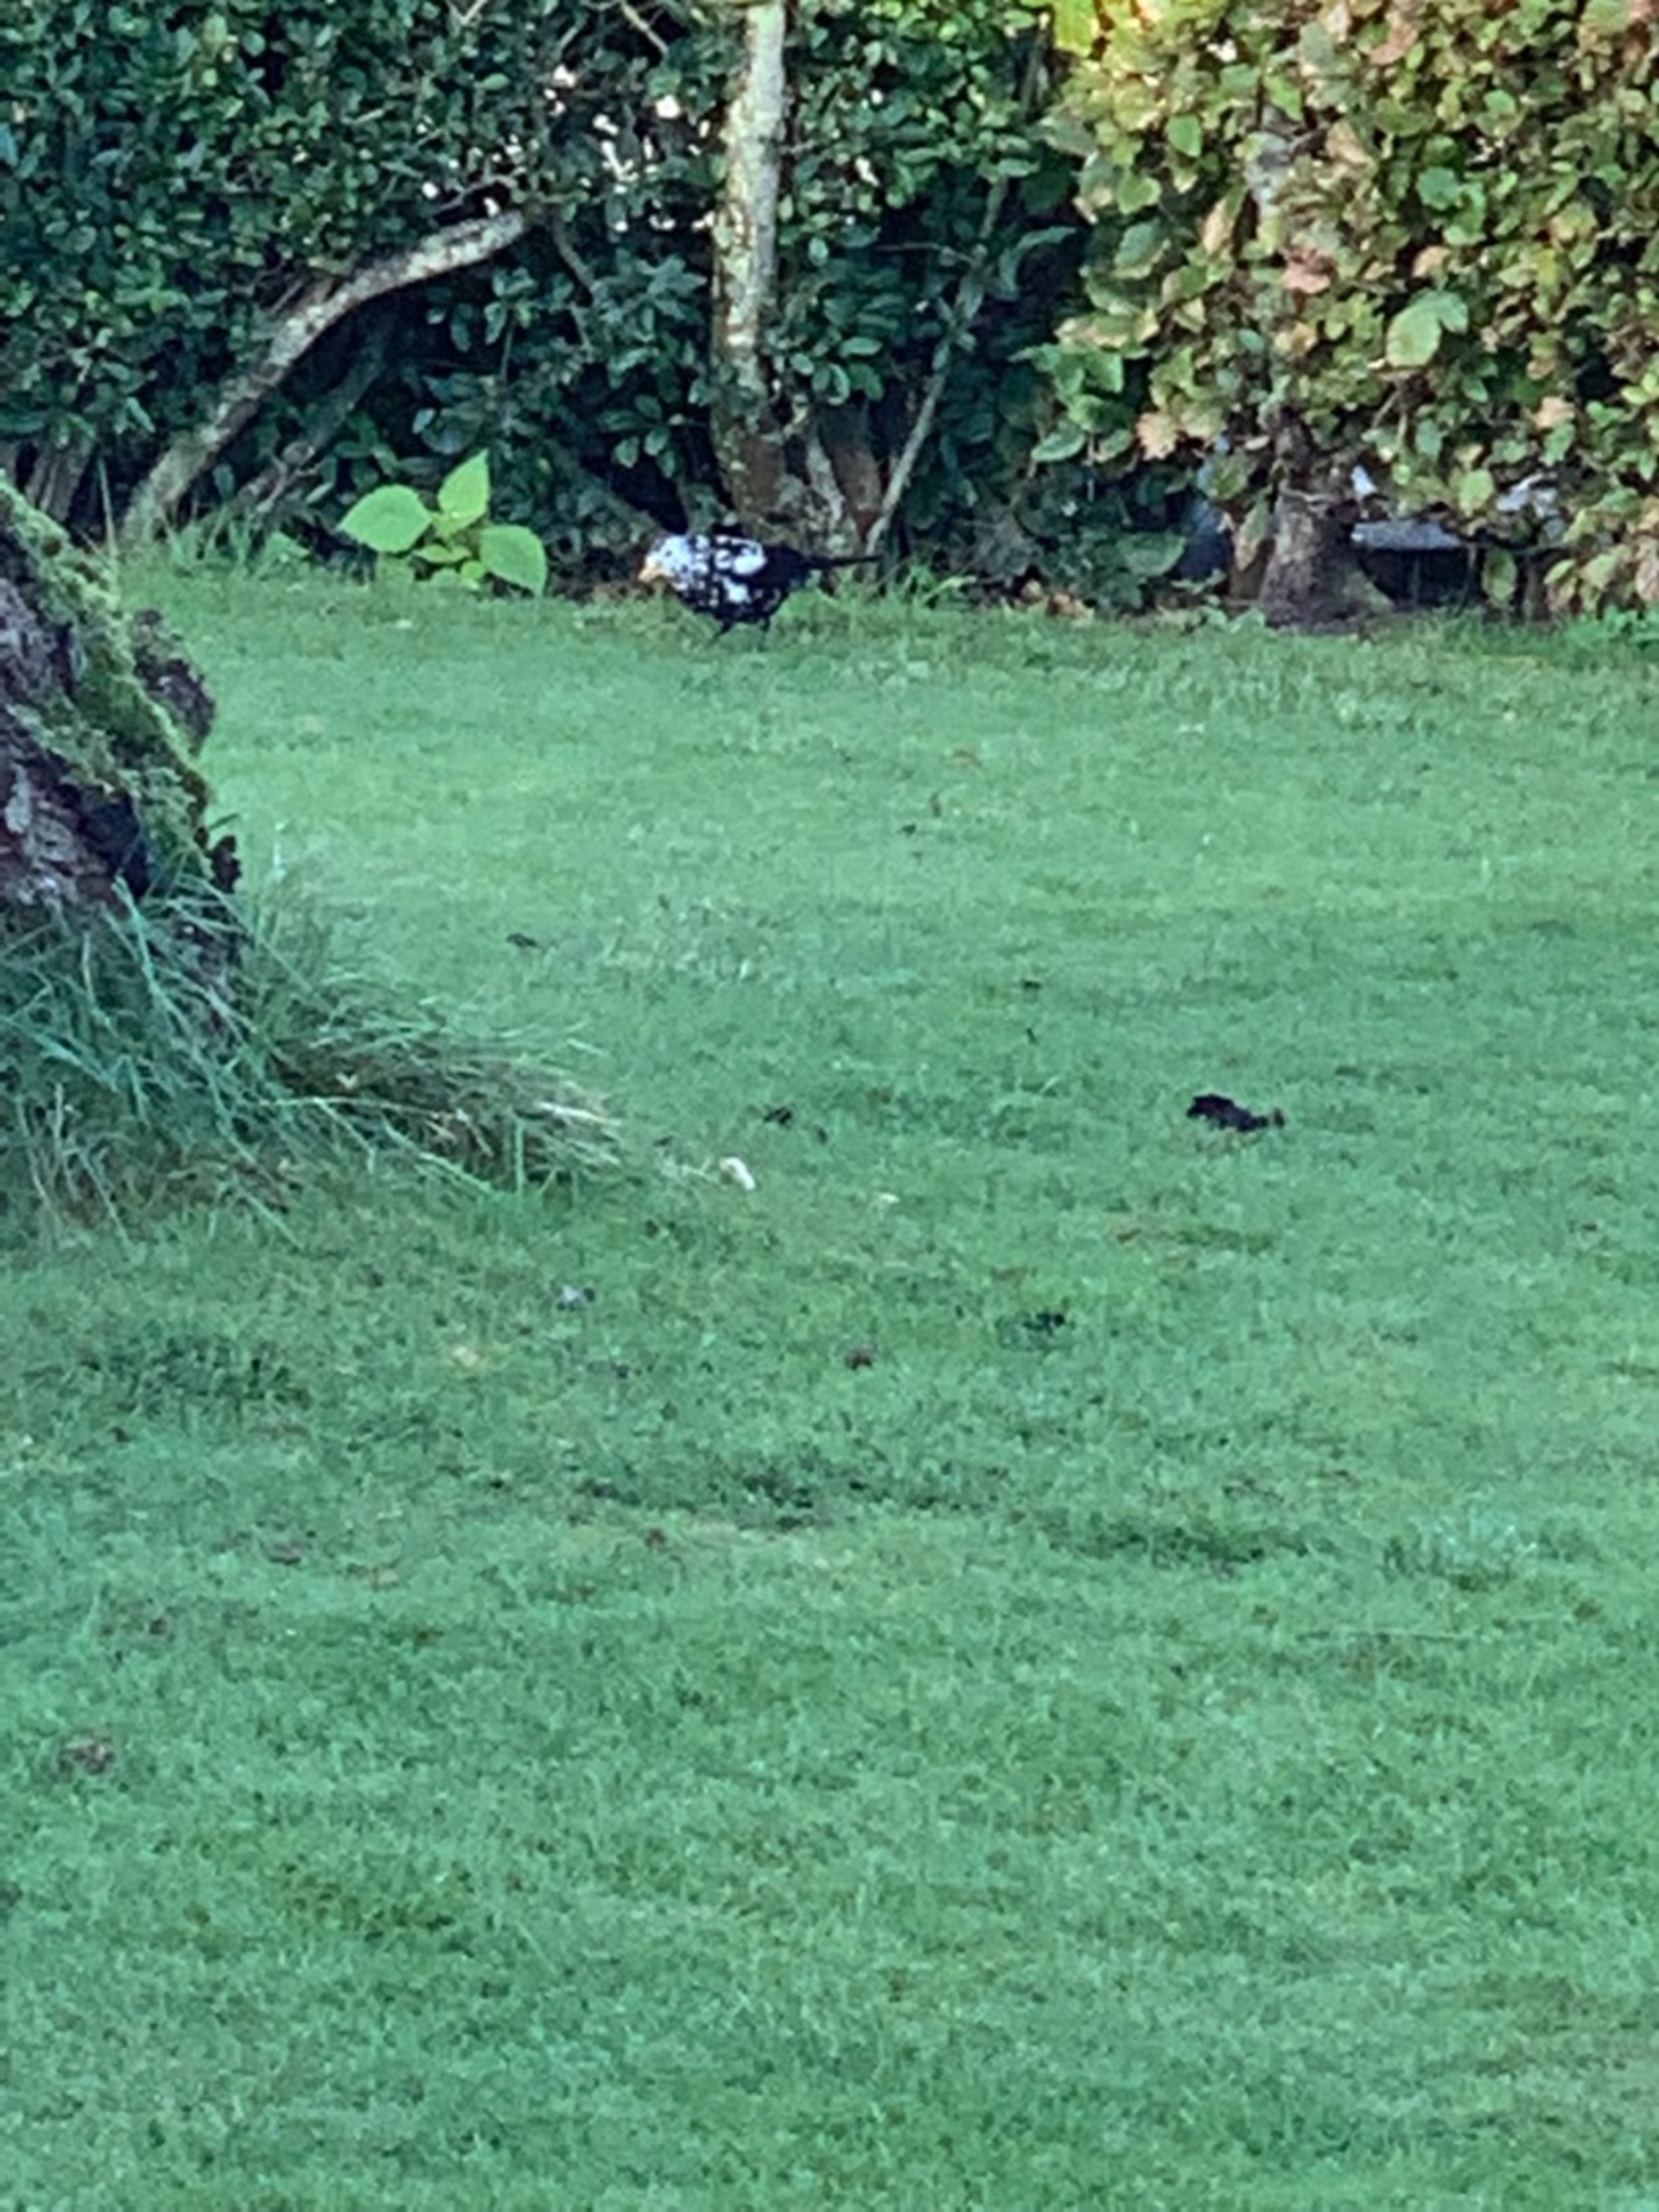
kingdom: Animalia
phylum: Chordata
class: Aves
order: Passeriformes
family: Turdidae
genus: Turdus
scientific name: Turdus merula
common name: Solsort
